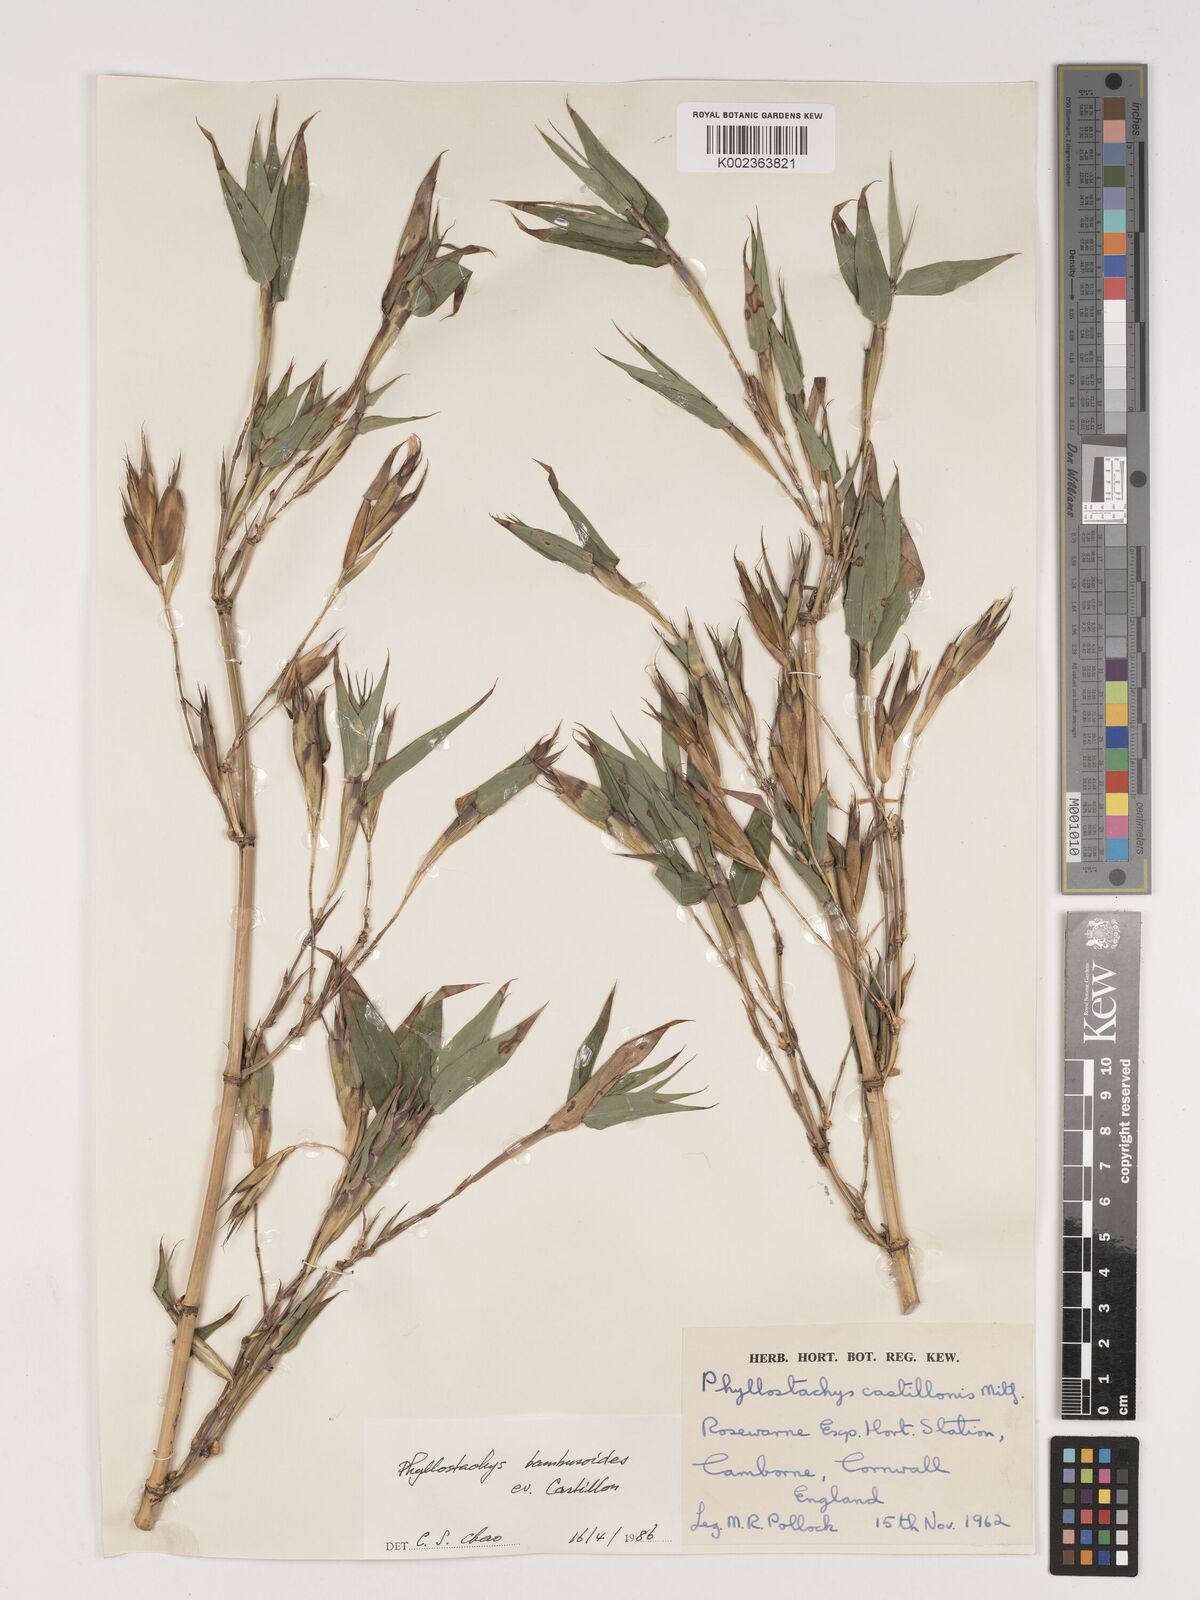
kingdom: Plantae
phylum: Tracheophyta
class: Liliopsida
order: Poales
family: Poaceae
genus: Phyllostachys
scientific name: Phyllostachys reticulata
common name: Bamboo
